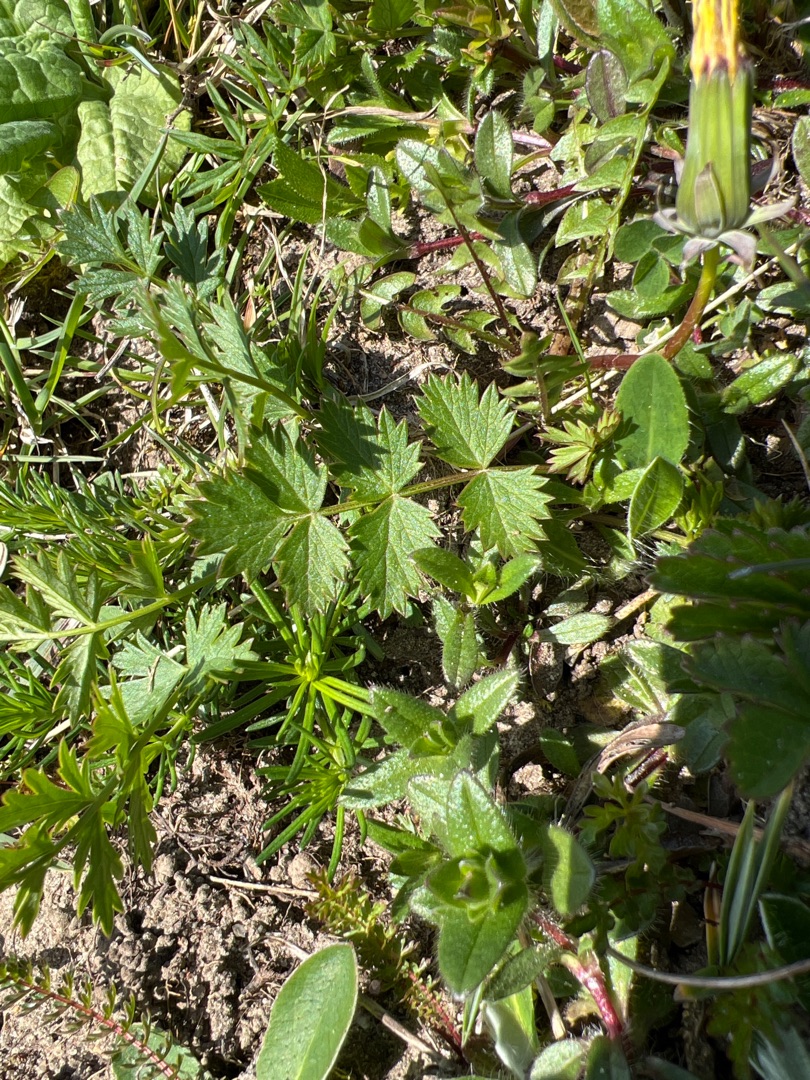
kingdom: Plantae
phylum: Tracheophyta
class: Magnoliopsida
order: Apiales
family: Apiaceae
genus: Pimpinella
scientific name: Pimpinella saxifraga
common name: Almindelig pimpinelle
